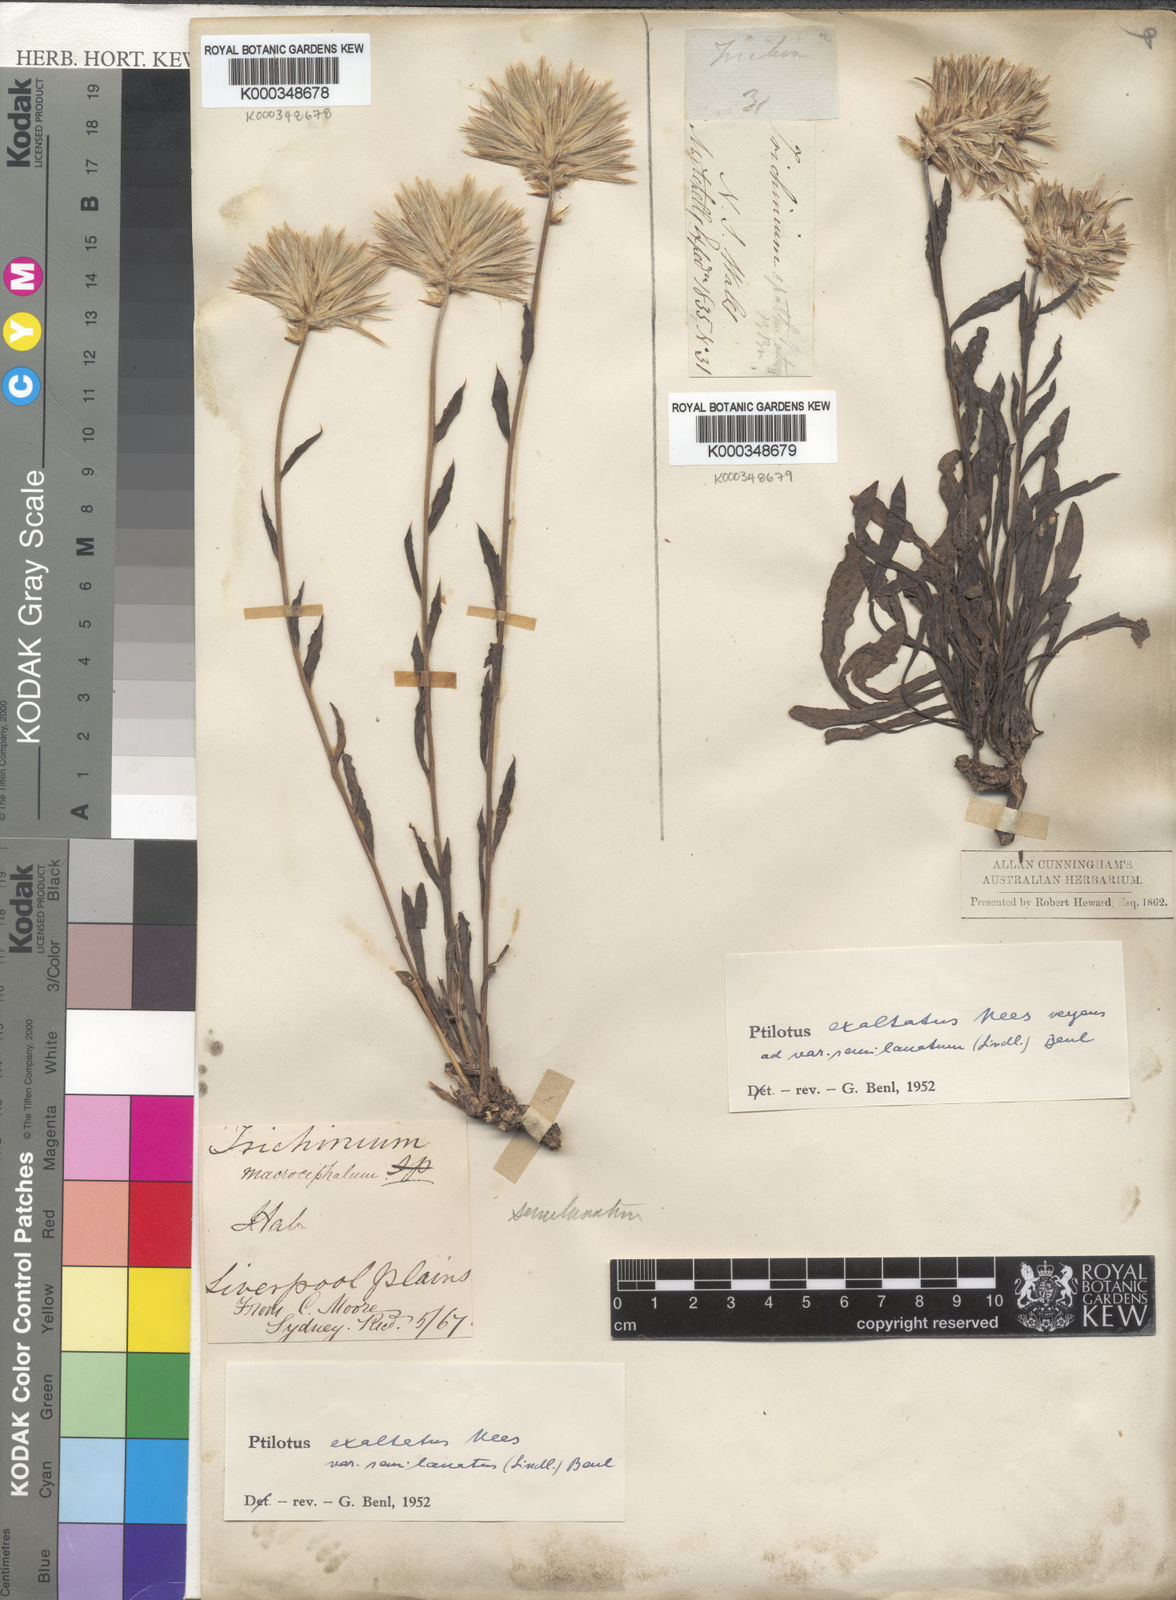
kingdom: Plantae
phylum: Tracheophyta
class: Magnoliopsida
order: Caryophyllales
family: Amaranthaceae
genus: Ptilotus
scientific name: Ptilotus
